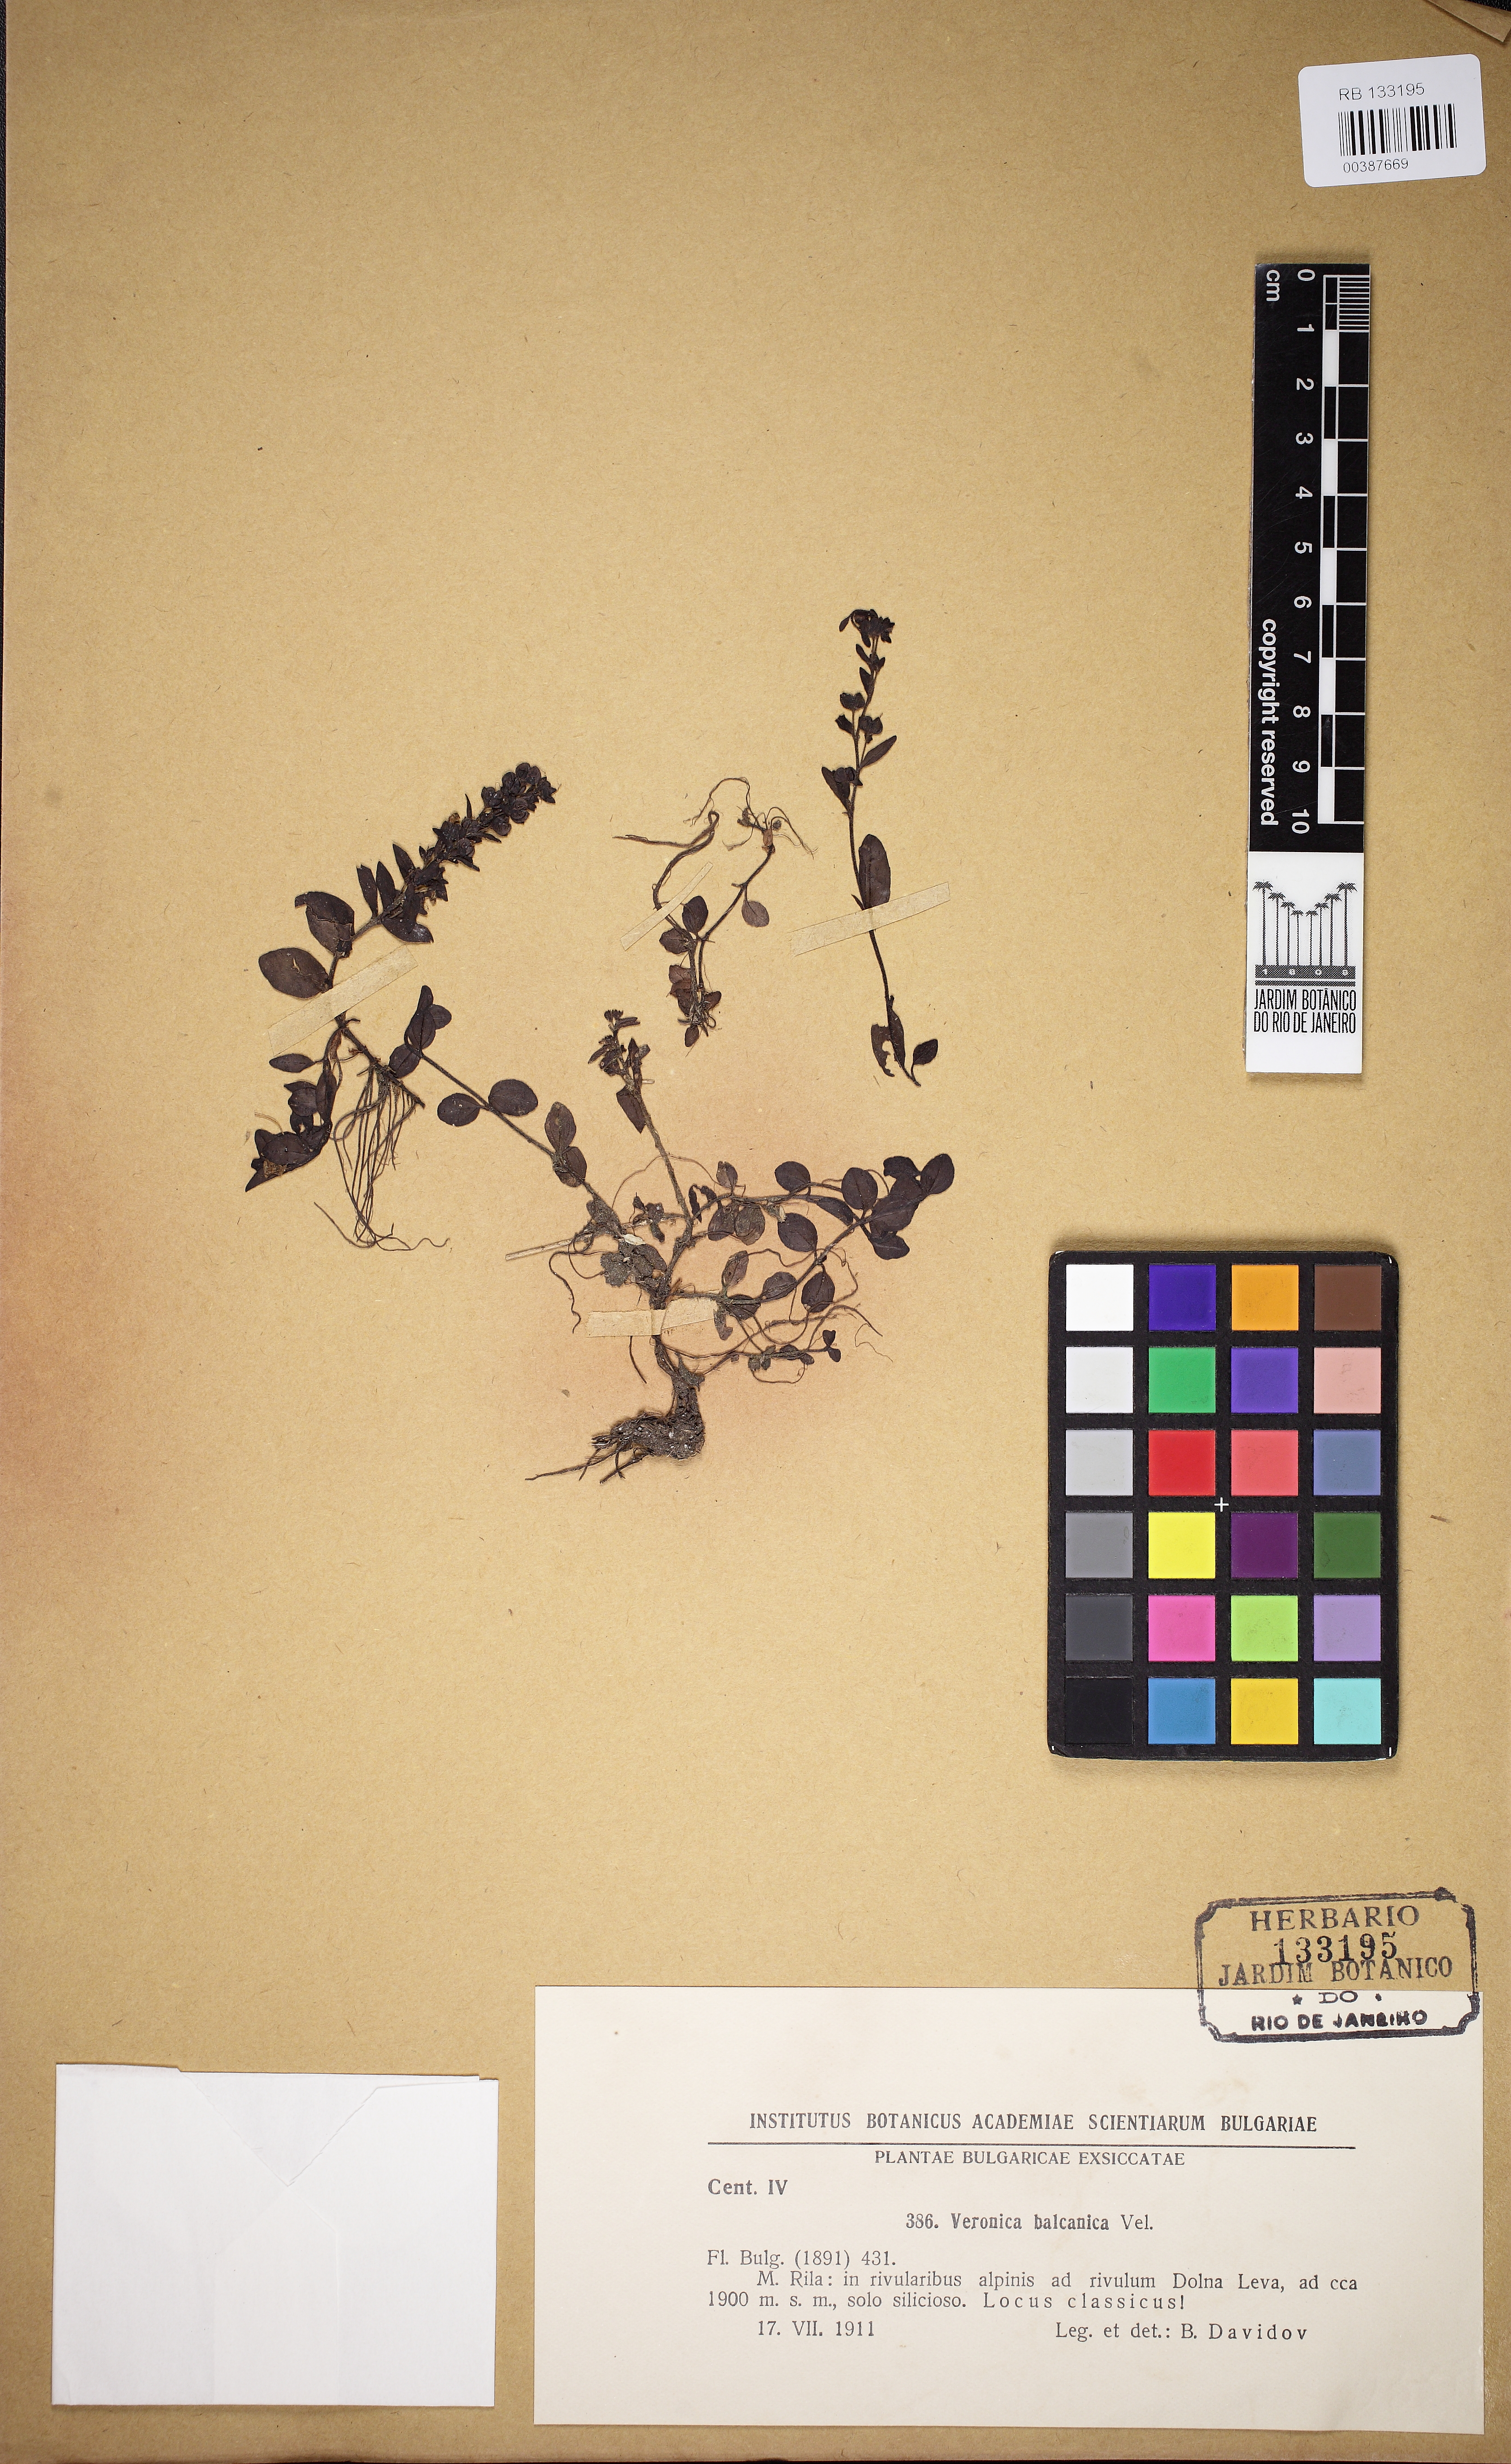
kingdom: Plantae
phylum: Tracheophyta
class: Magnoliopsida
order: Lamiales
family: Plantaginaceae
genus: Veronica
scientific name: Veronica serpyllifolia
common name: Thyme-leaved speedwell
